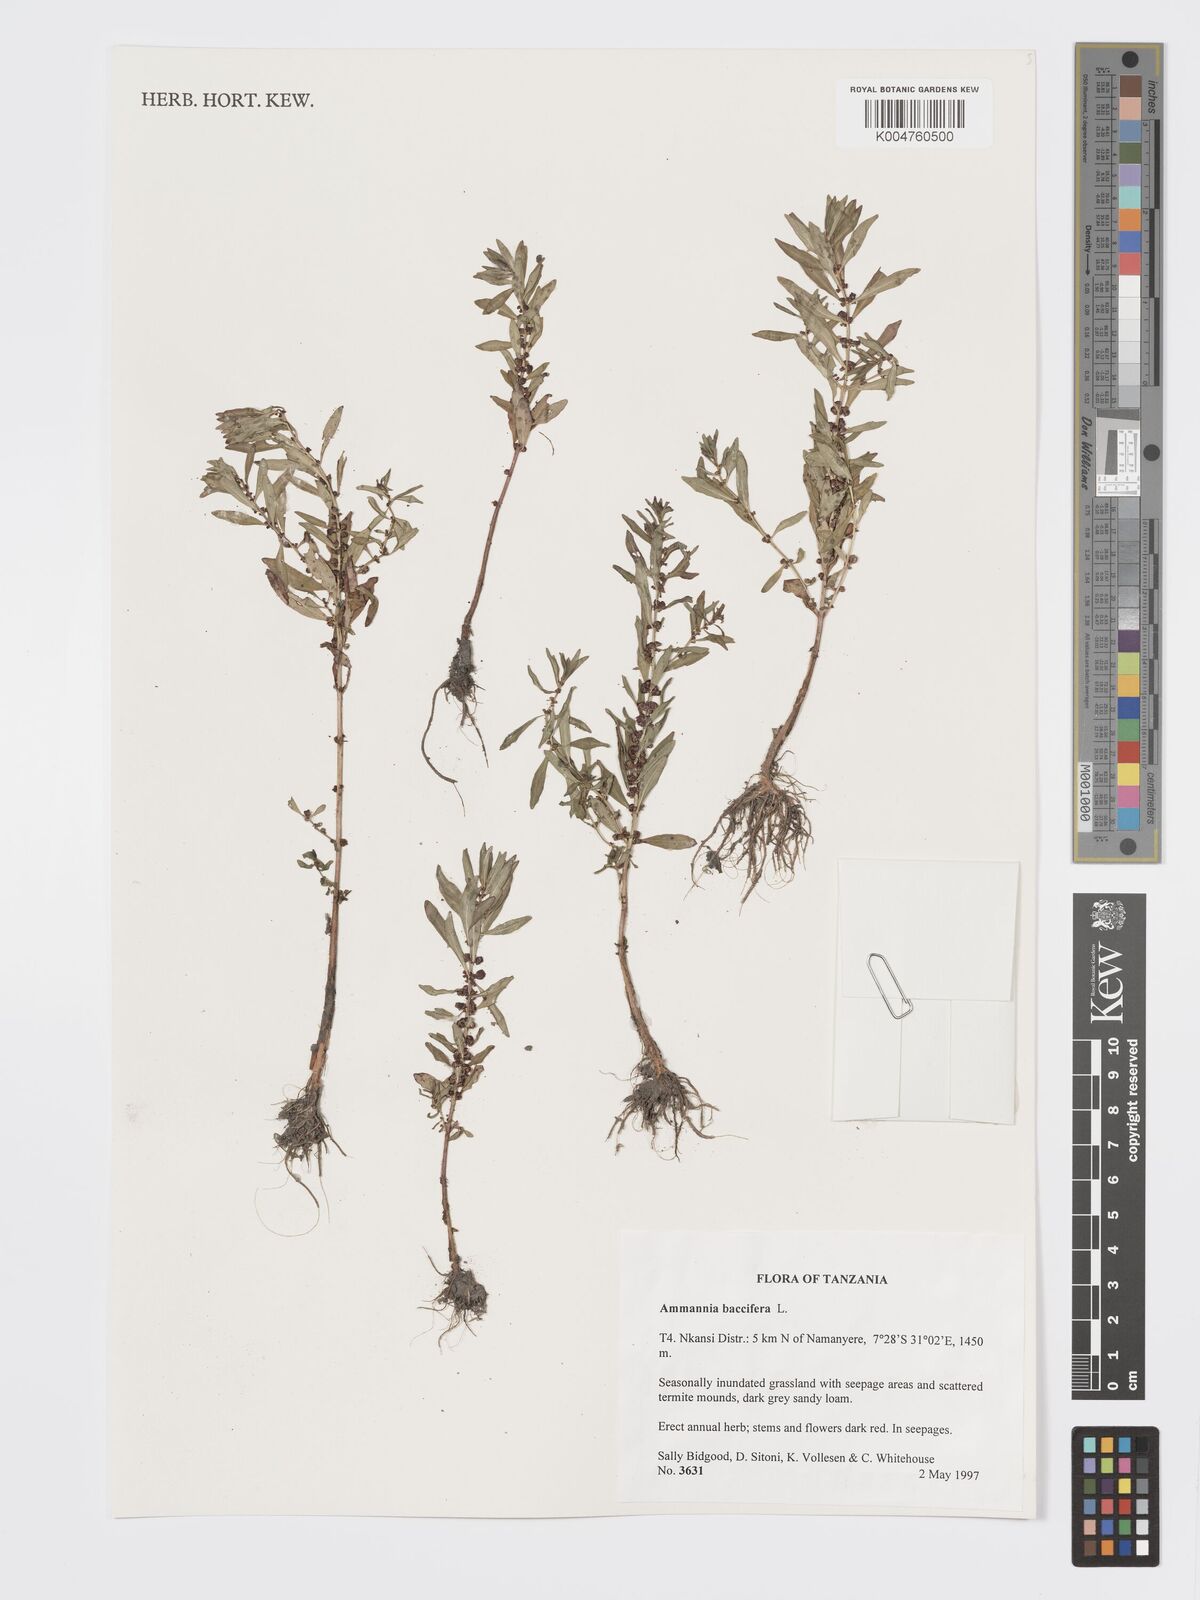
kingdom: Plantae
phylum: Tracheophyta
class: Magnoliopsida
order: Myrtales
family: Lythraceae
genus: Ammannia
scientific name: Ammannia
